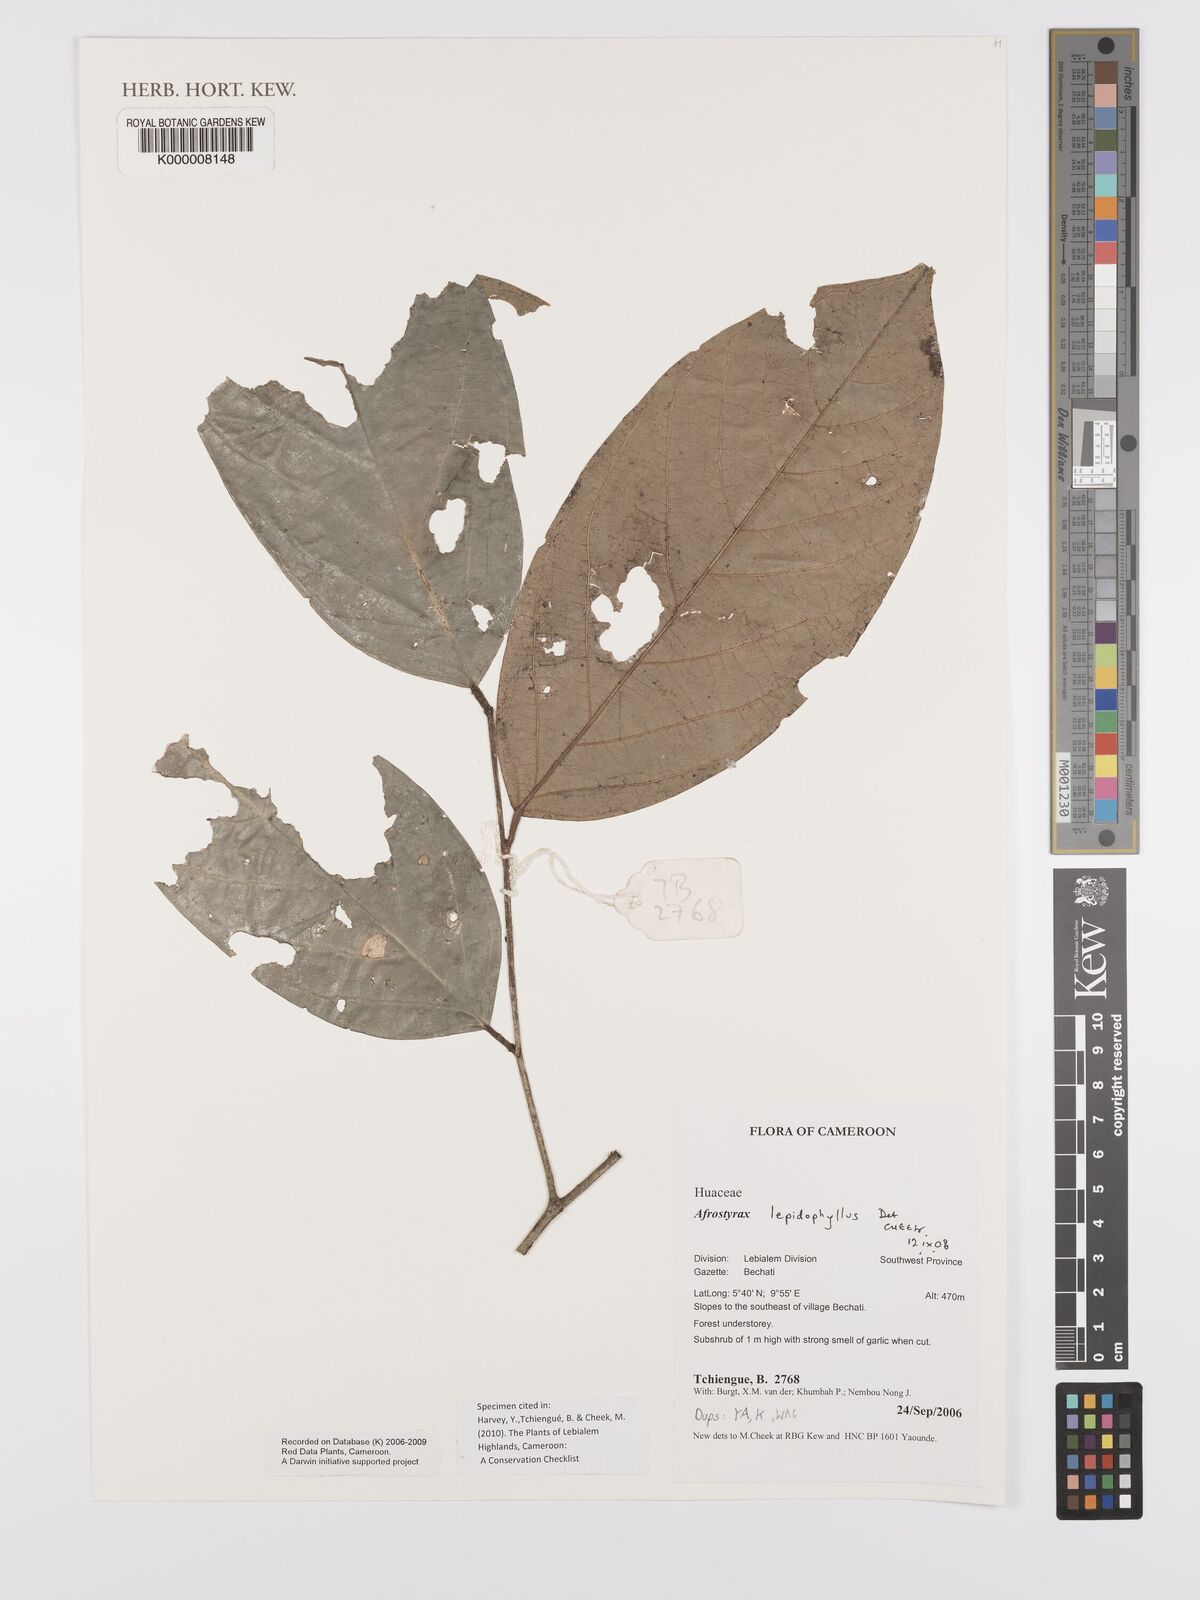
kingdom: Plantae
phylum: Tracheophyta
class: Magnoliopsida
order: Oxalidales
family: Huaceae
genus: Afrostyrax
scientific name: Afrostyrax lepidophyllus
